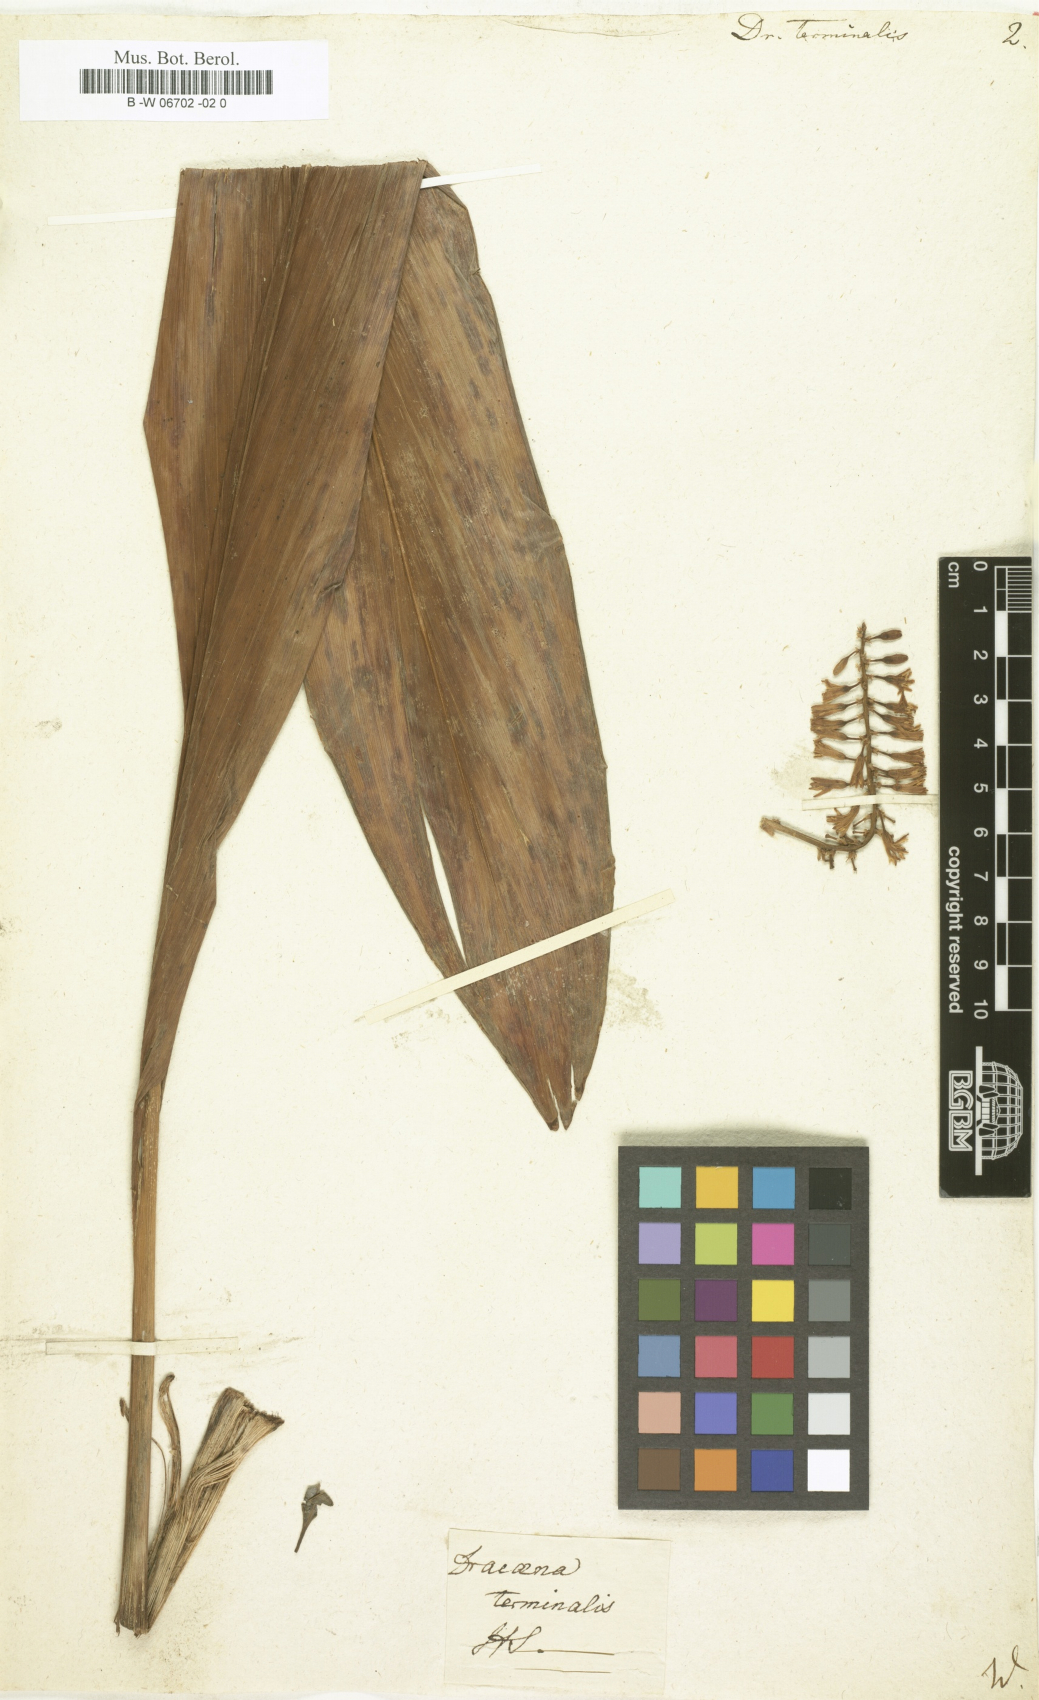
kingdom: Plantae
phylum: Tracheophyta
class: Liliopsida
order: Asparagales
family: Asparagaceae
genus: Dracaena
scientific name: Dracaena terminalis
